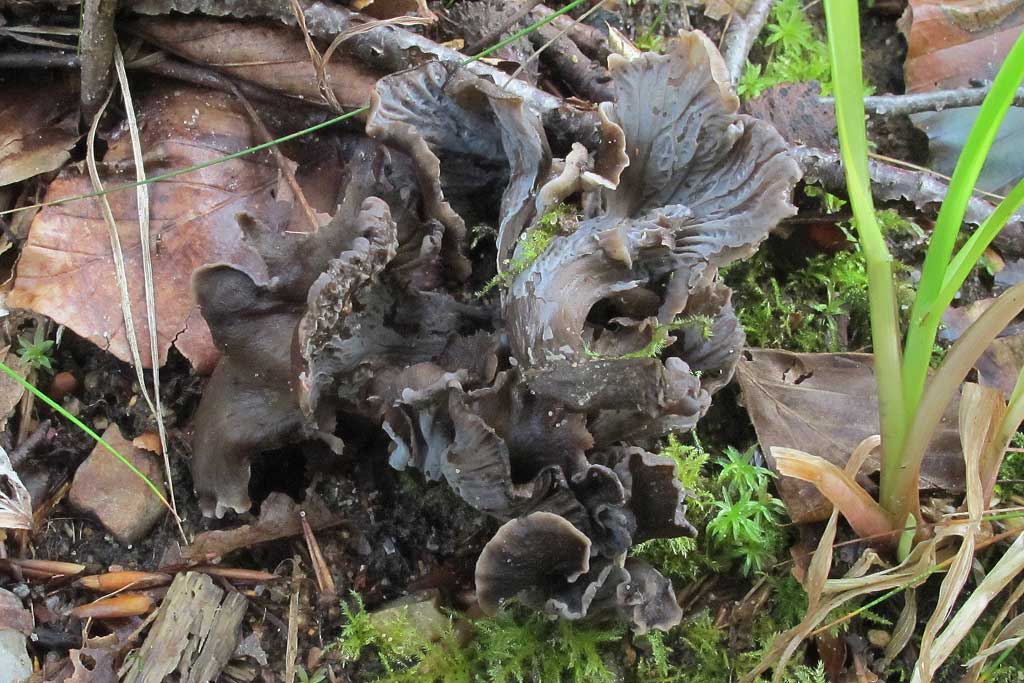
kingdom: Fungi
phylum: Basidiomycota
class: Agaricomycetes
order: Cantharellales
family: Hydnaceae
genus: Cantharellus
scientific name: Cantharellus cinereus
